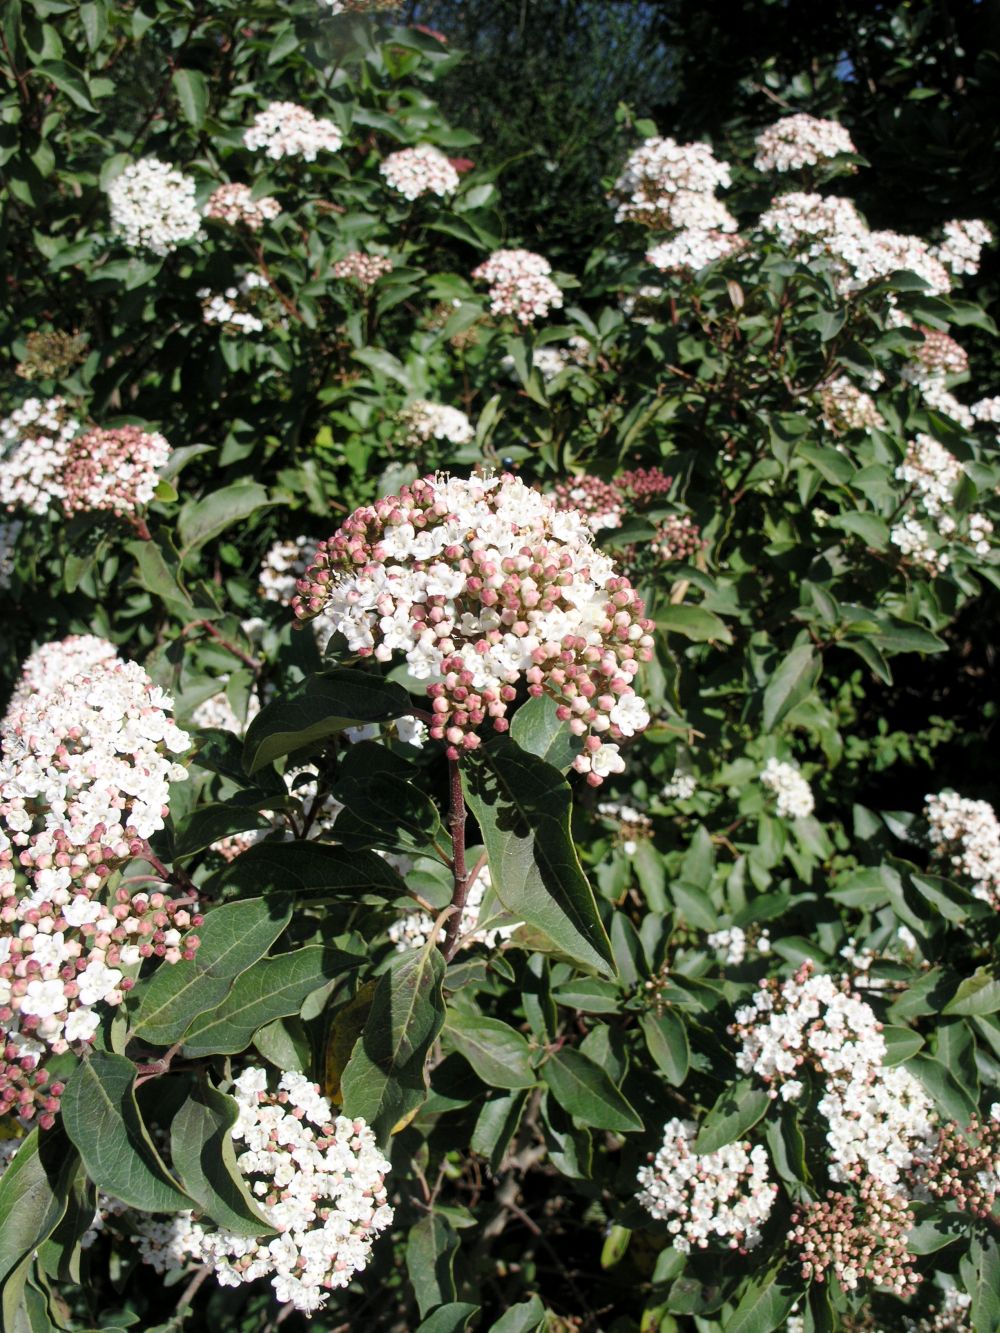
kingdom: Plantae
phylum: Tracheophyta
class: Magnoliopsida
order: Dipsacales
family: Viburnaceae
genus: Viburnum
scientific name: Viburnum tinus
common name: Laurustinus
